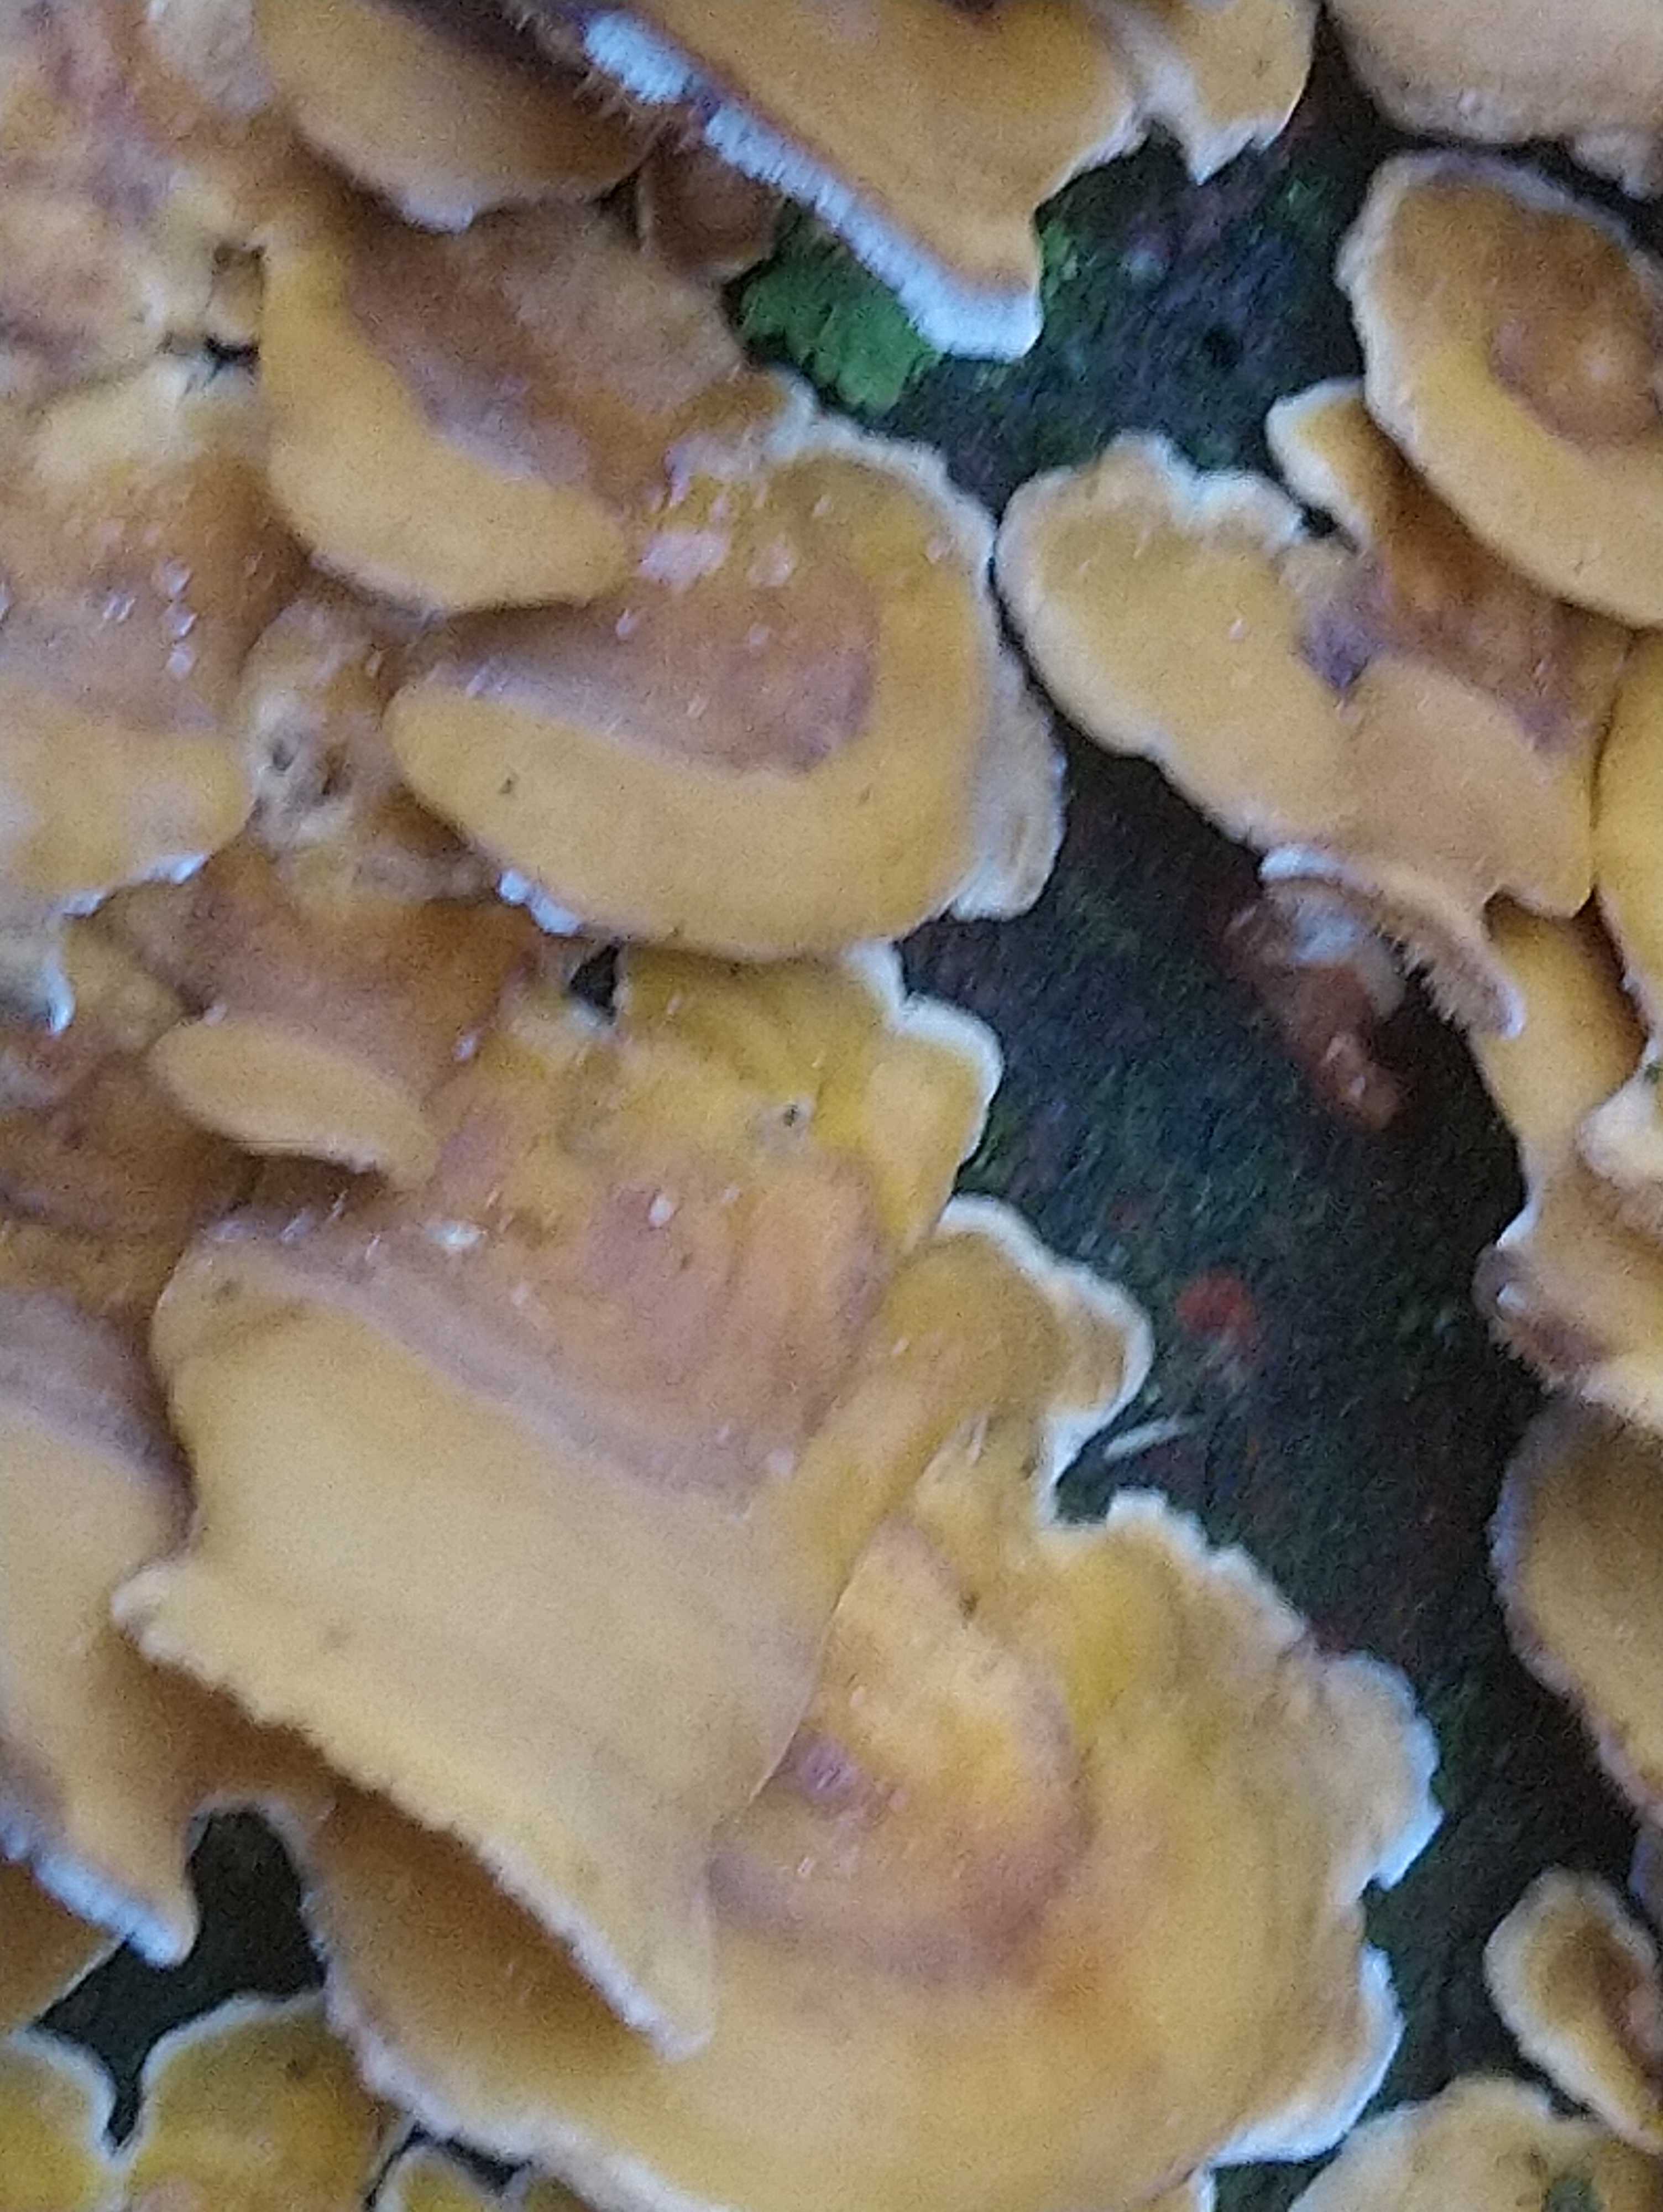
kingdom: Fungi
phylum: Basidiomycota
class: Agaricomycetes
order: Russulales
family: Stereaceae
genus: Stereum
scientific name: Stereum hirsutum
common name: håret lædersvamp
